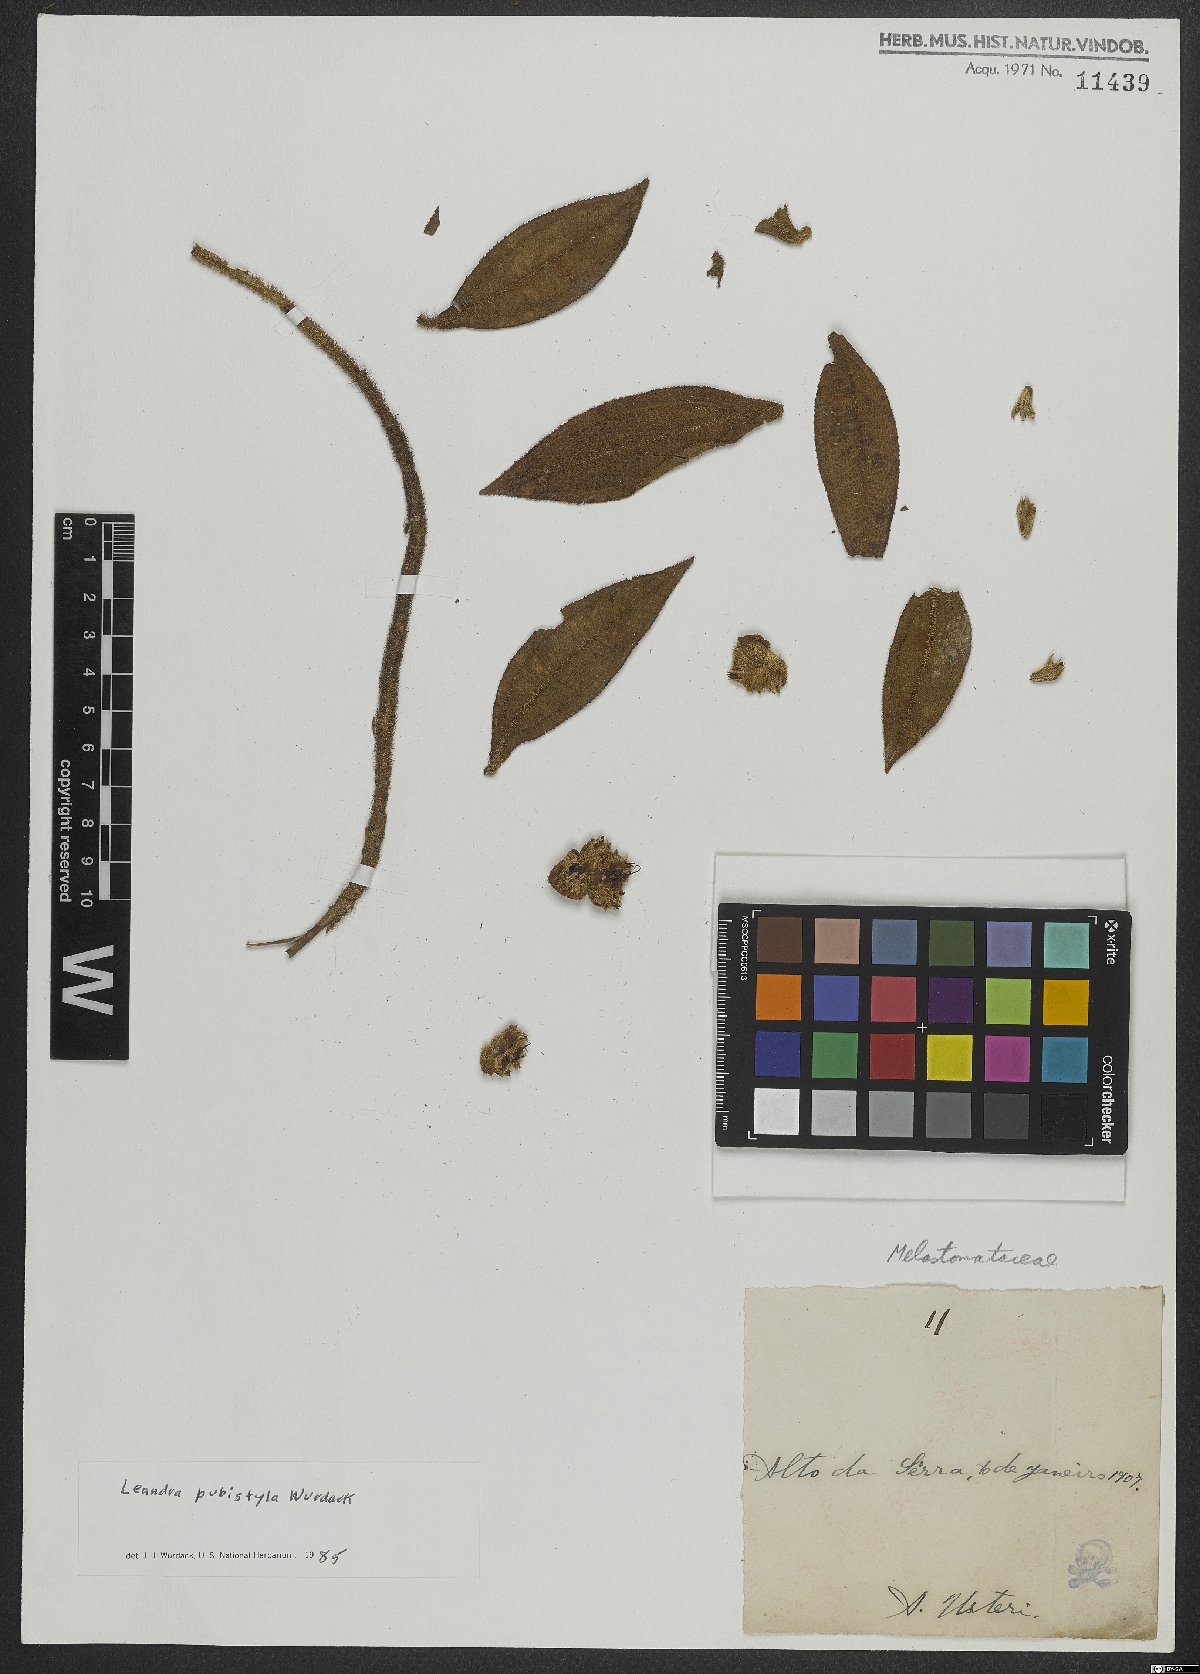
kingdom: Plantae
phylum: Tracheophyta
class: Magnoliopsida
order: Myrtales
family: Melastomataceae
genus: Miconia
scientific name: Miconia pubistyla
